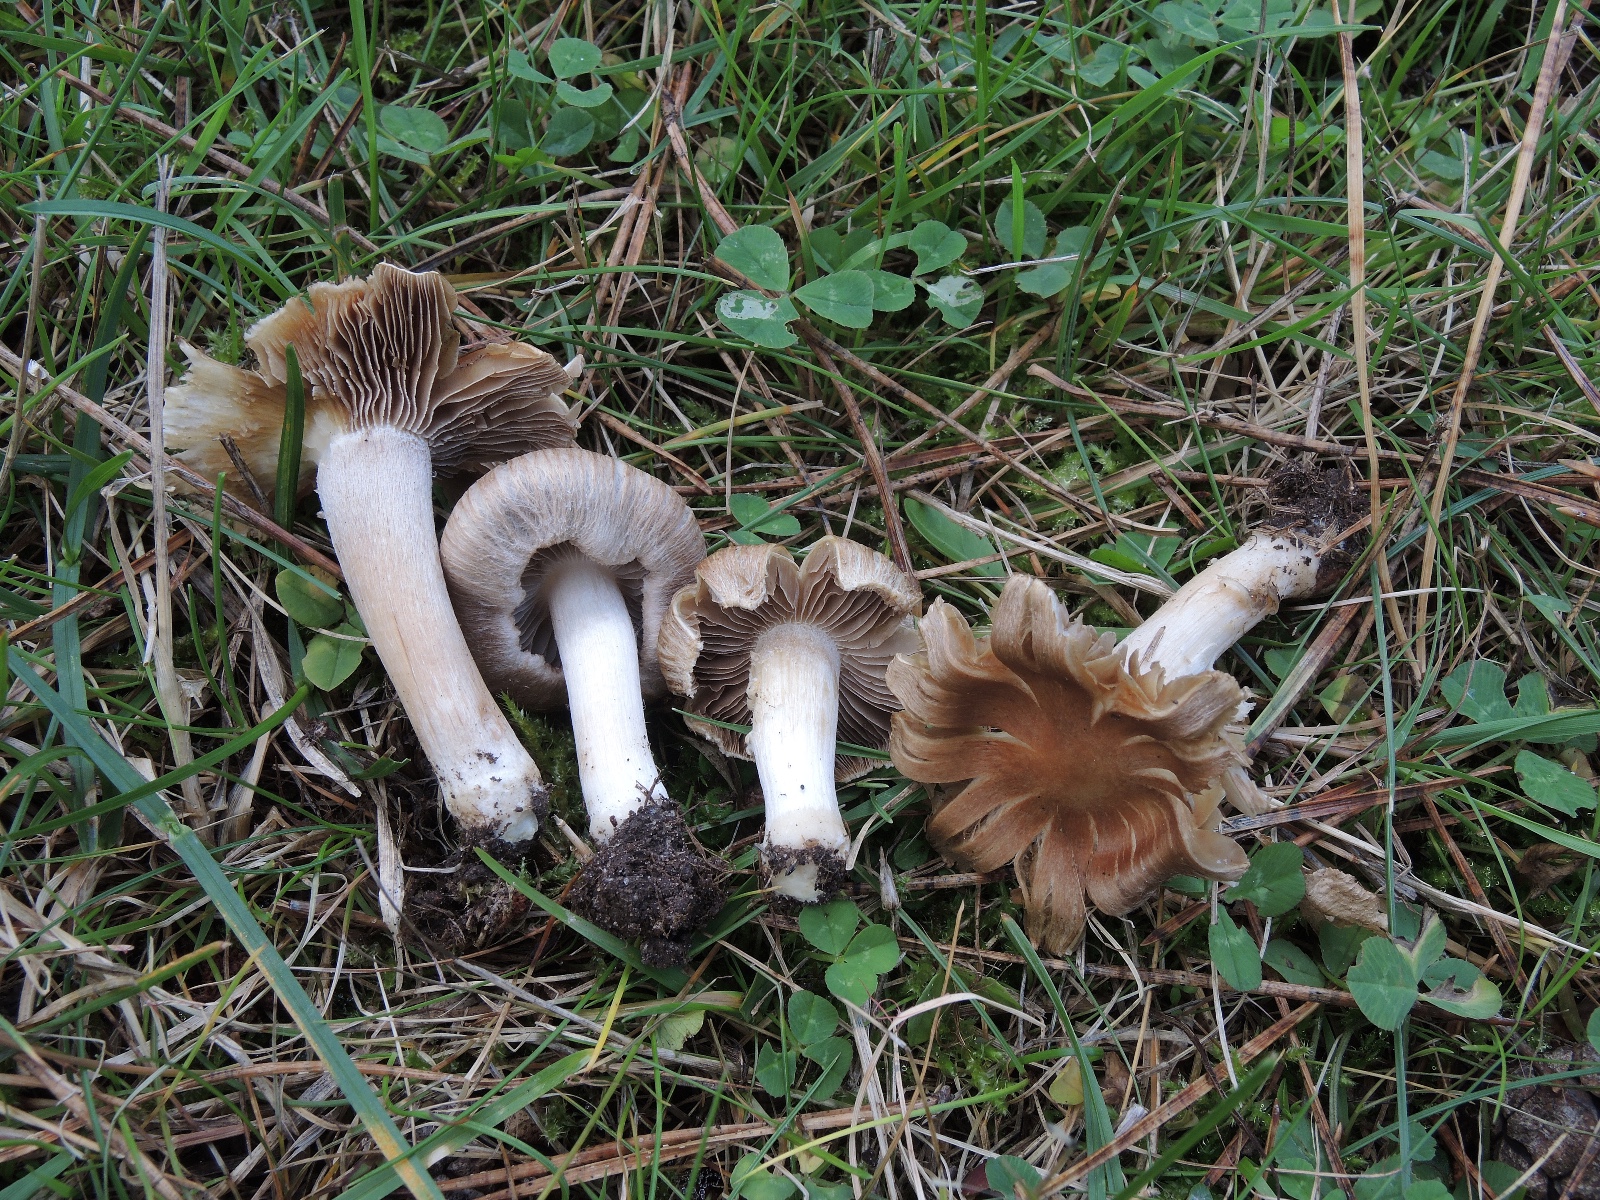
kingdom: Fungi
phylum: Basidiomycota
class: Agaricomycetes
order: Agaricales
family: Inocybaceae
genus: Inocybe
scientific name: Inocybe psammobrunnea
